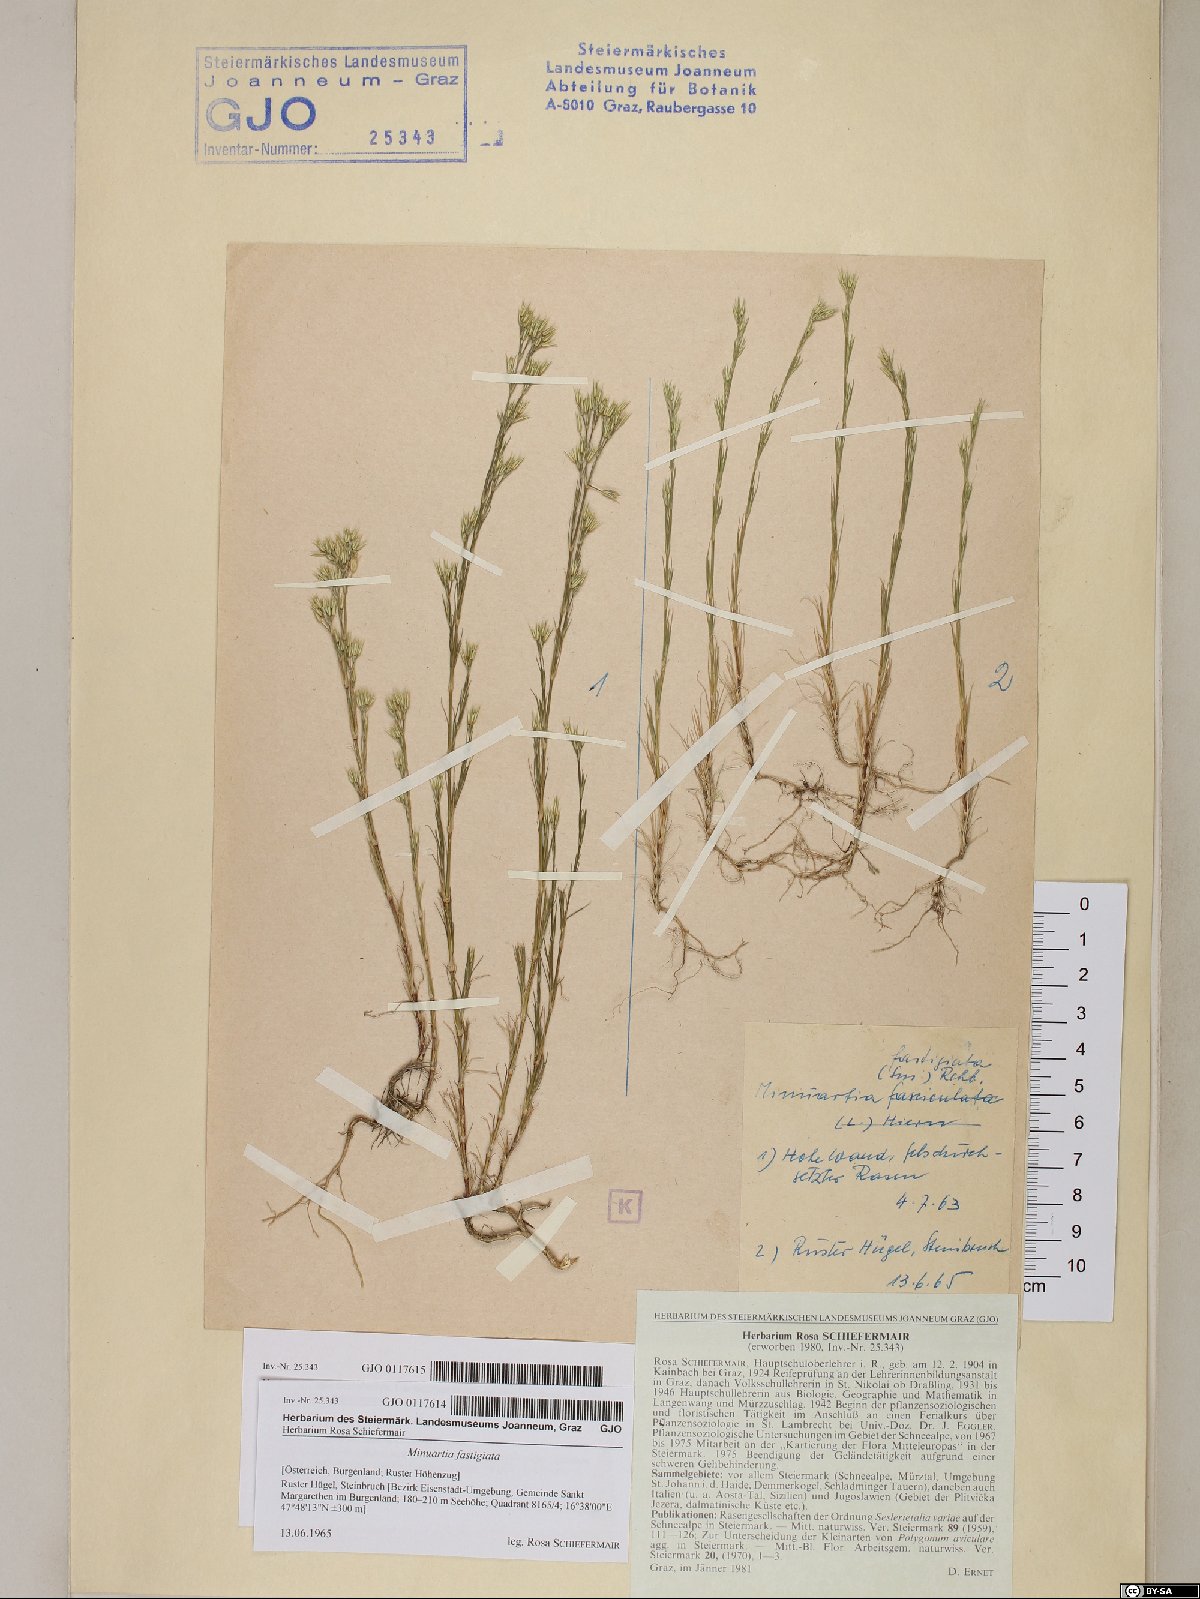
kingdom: Plantae
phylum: Tracheophyta
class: Magnoliopsida
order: Caryophyllales
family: Caryophyllaceae
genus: Minuartia
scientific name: Minuartia mucronata
